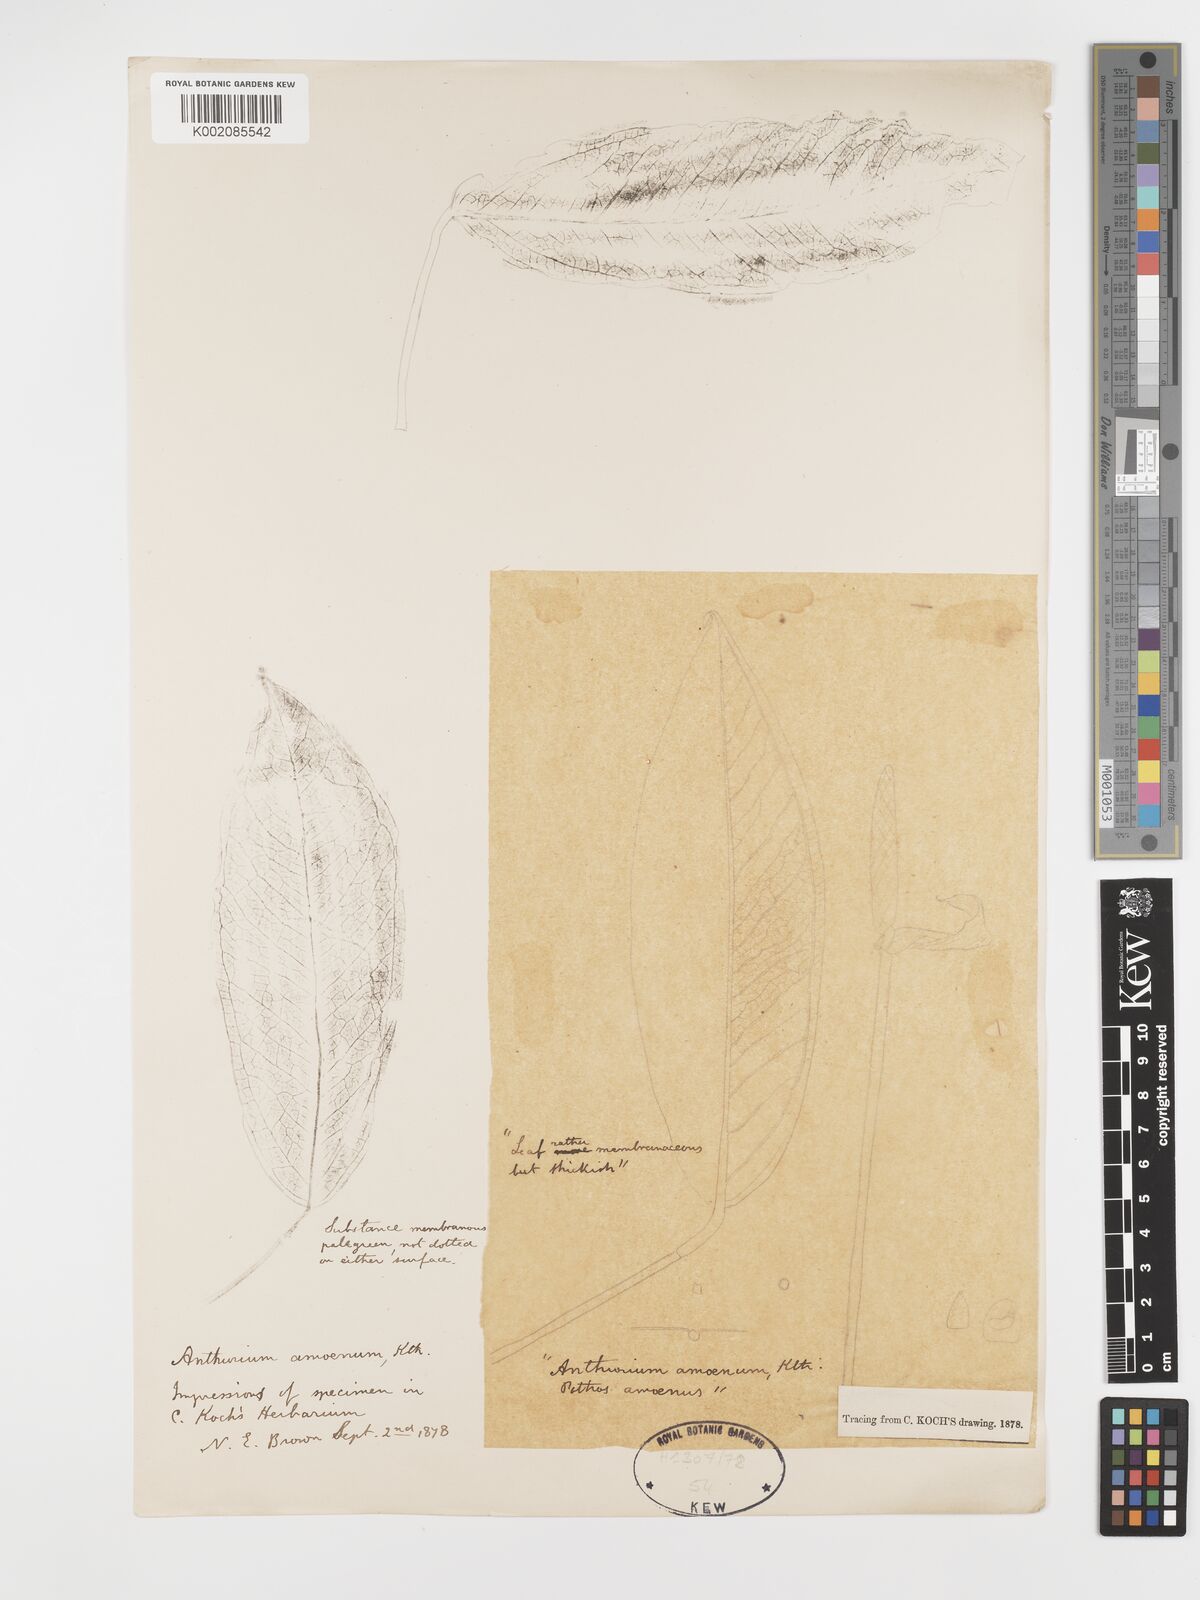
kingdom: Plantae
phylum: Tracheophyta
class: Liliopsida
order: Alismatales
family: Araceae
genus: Anthurium
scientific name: Anthurium amoenum
